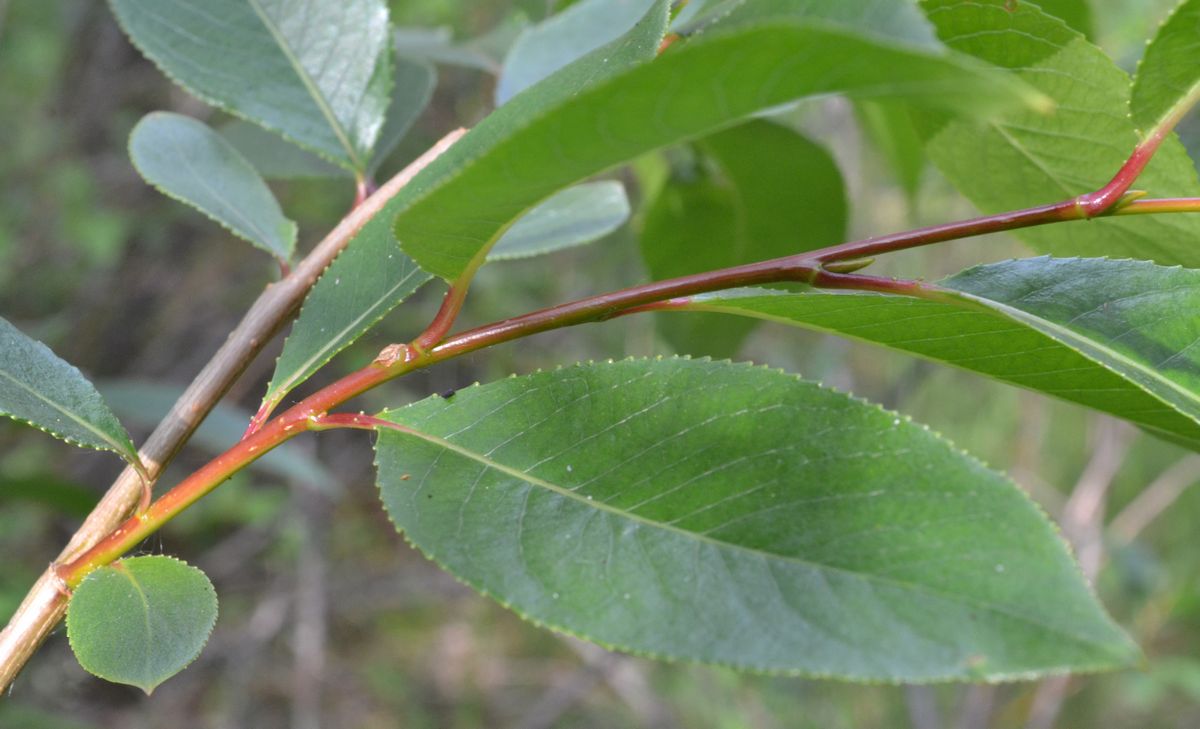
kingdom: Plantae
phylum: Tracheophyta
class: Magnoliopsida
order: Malpighiales
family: Salicaceae
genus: Salix
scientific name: Salix pentandra
